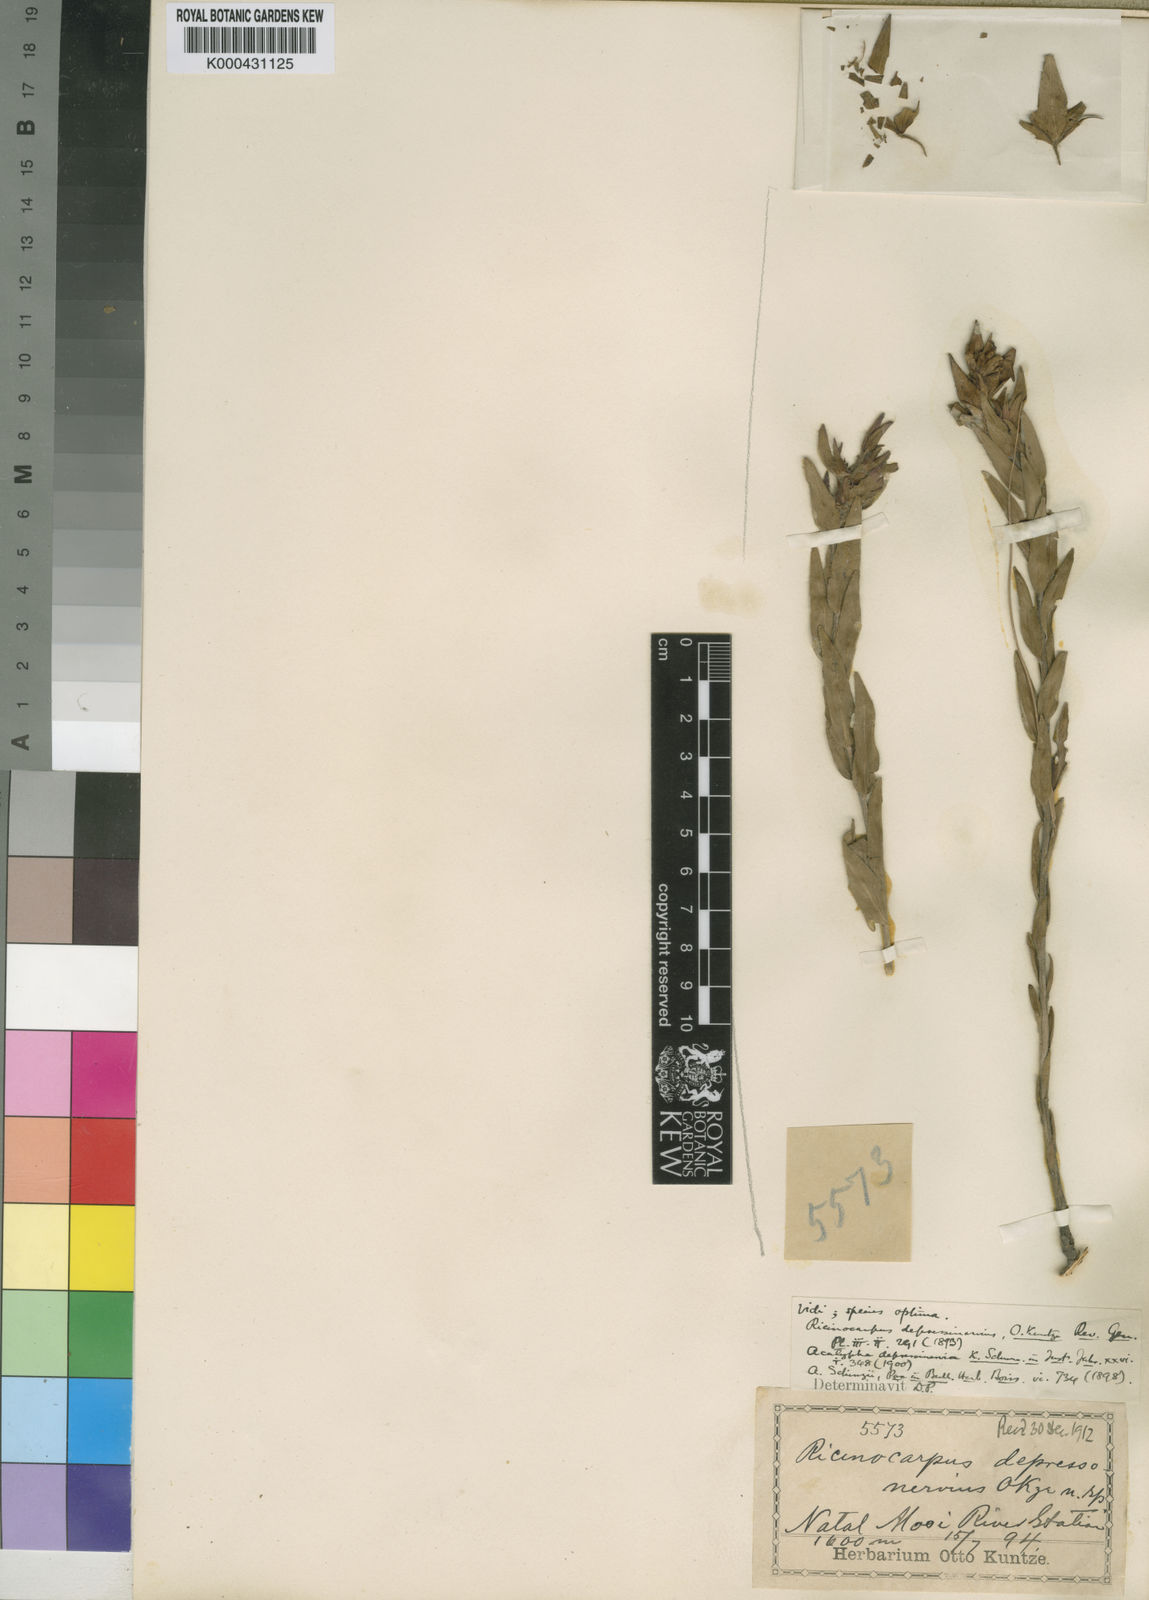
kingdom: Plantae
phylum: Tracheophyta
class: Magnoliopsida
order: Malpighiales
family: Euphorbiaceae
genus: Acalypha
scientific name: Acalypha depressinervia
